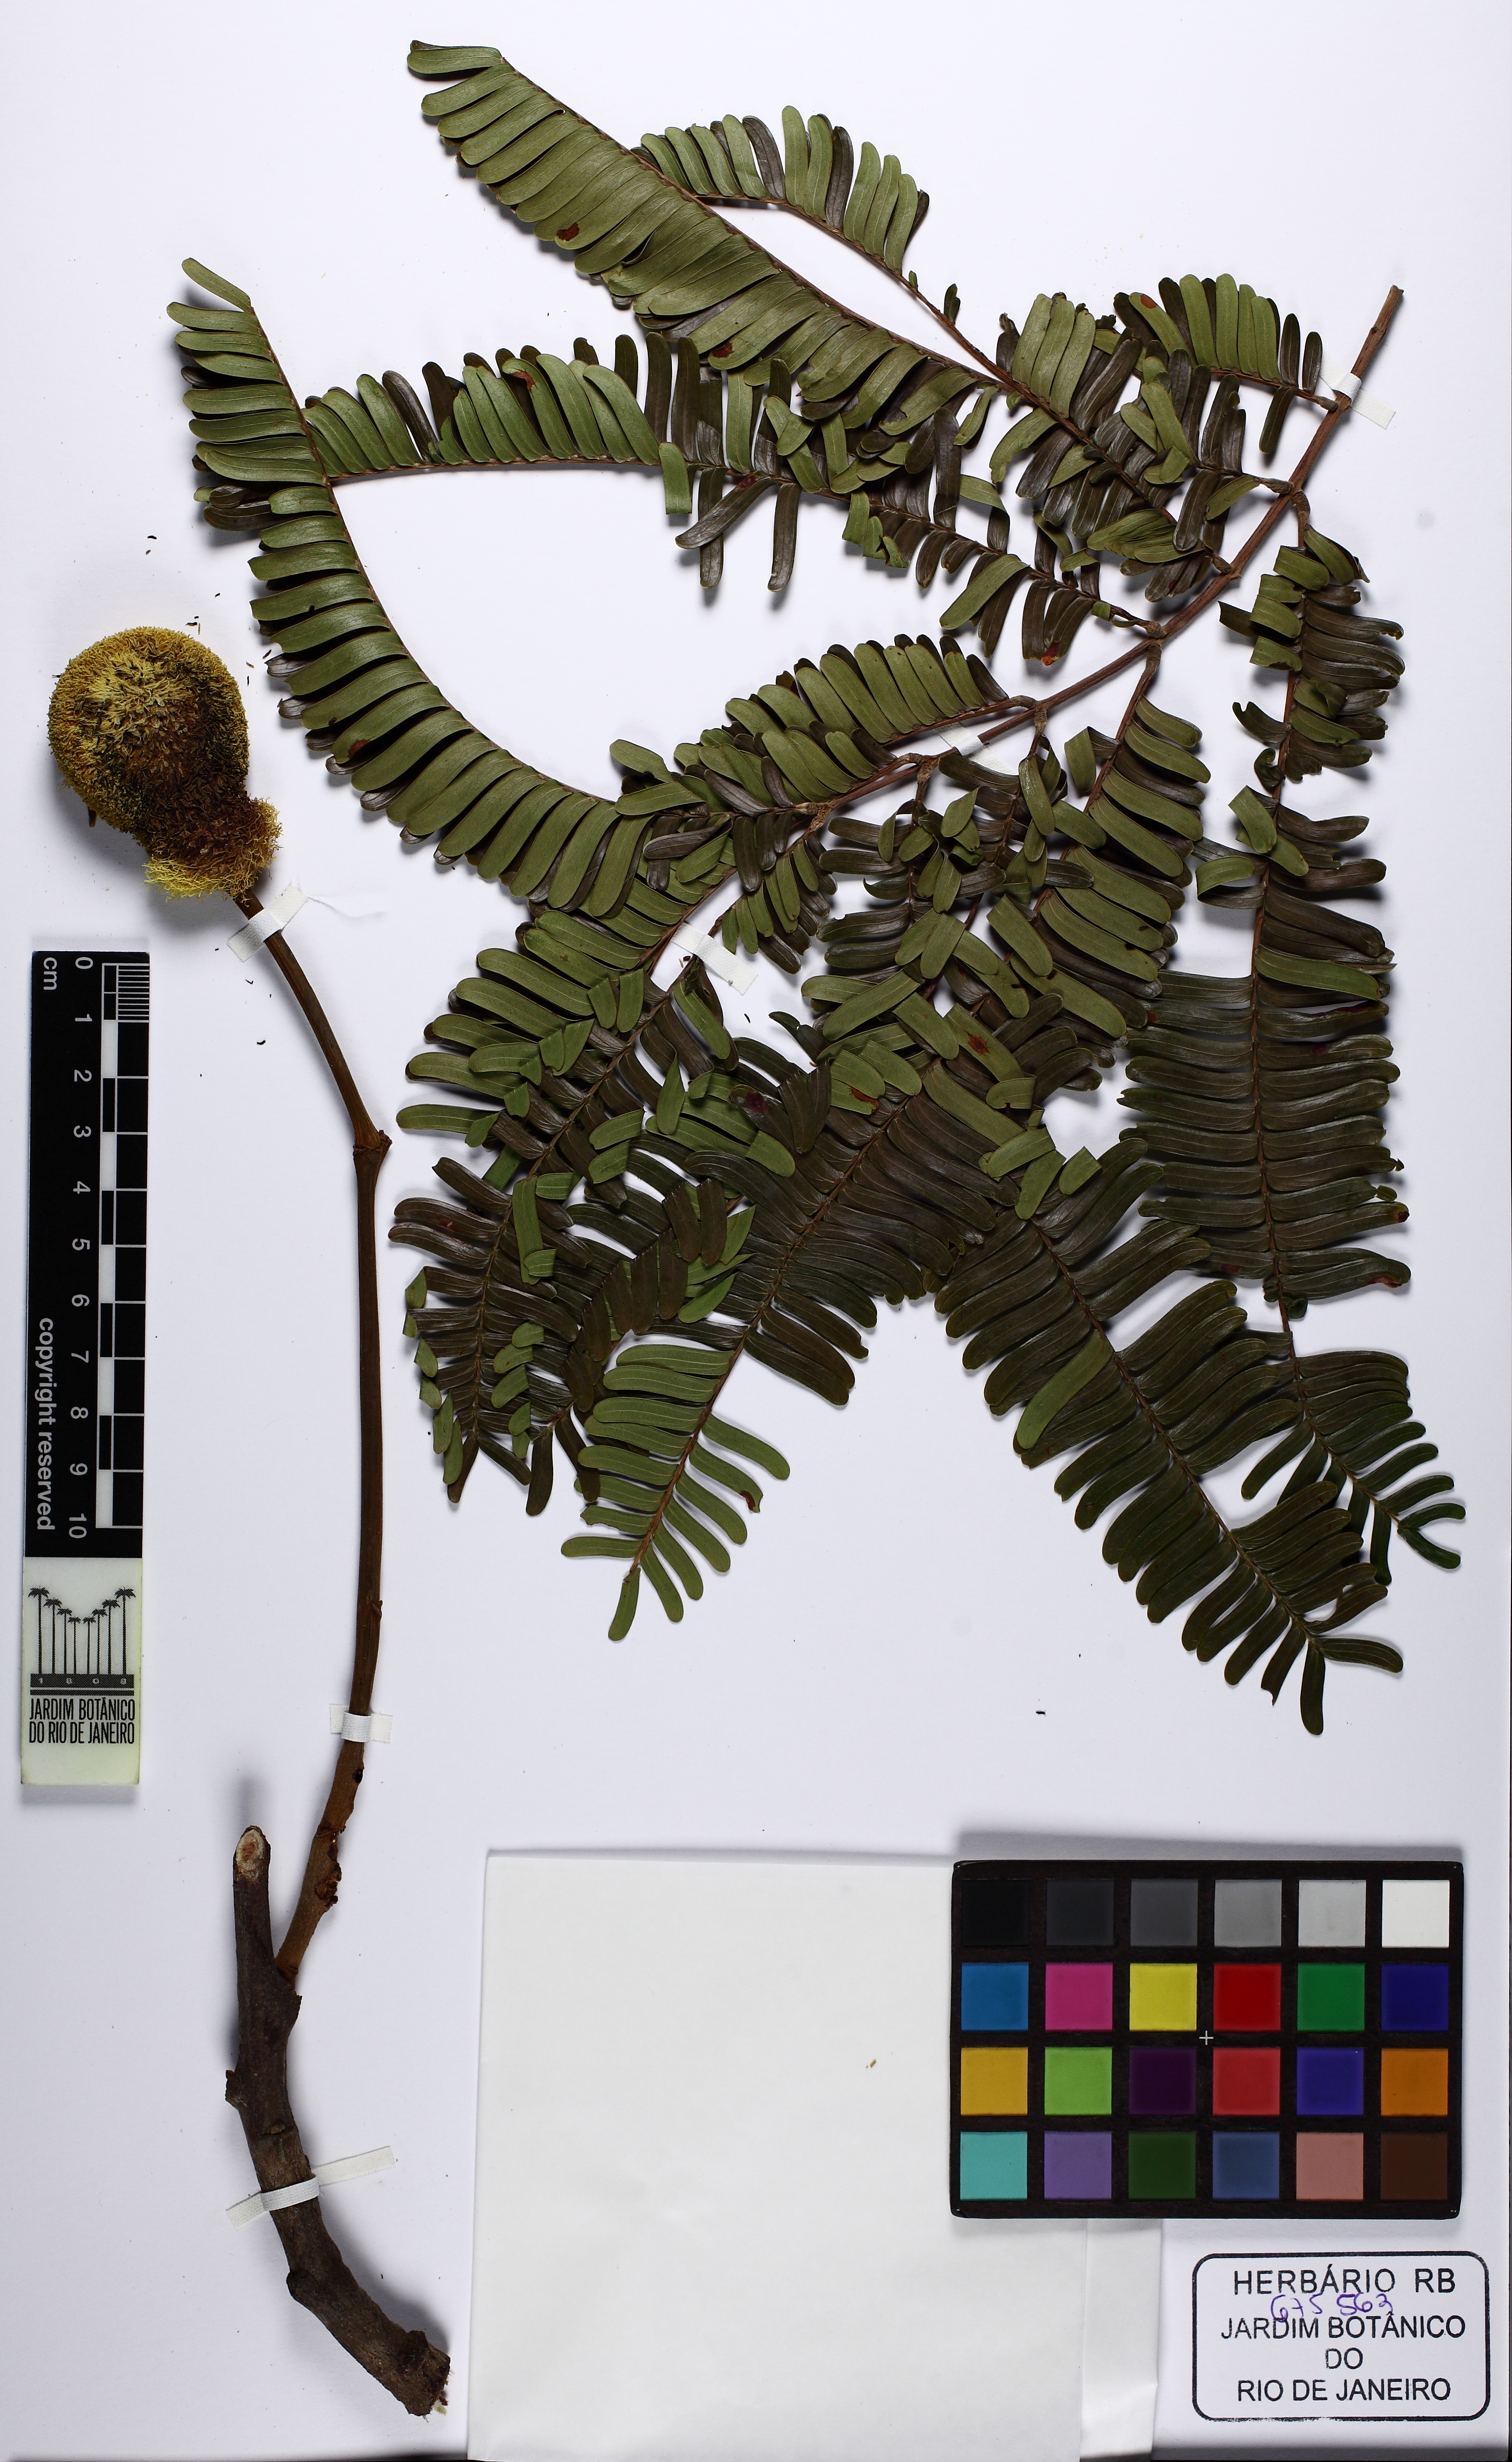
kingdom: Plantae
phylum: Tracheophyta
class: Magnoliopsida
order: Fabales
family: Fabaceae
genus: Parkia
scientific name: Parkia cachimboensis
